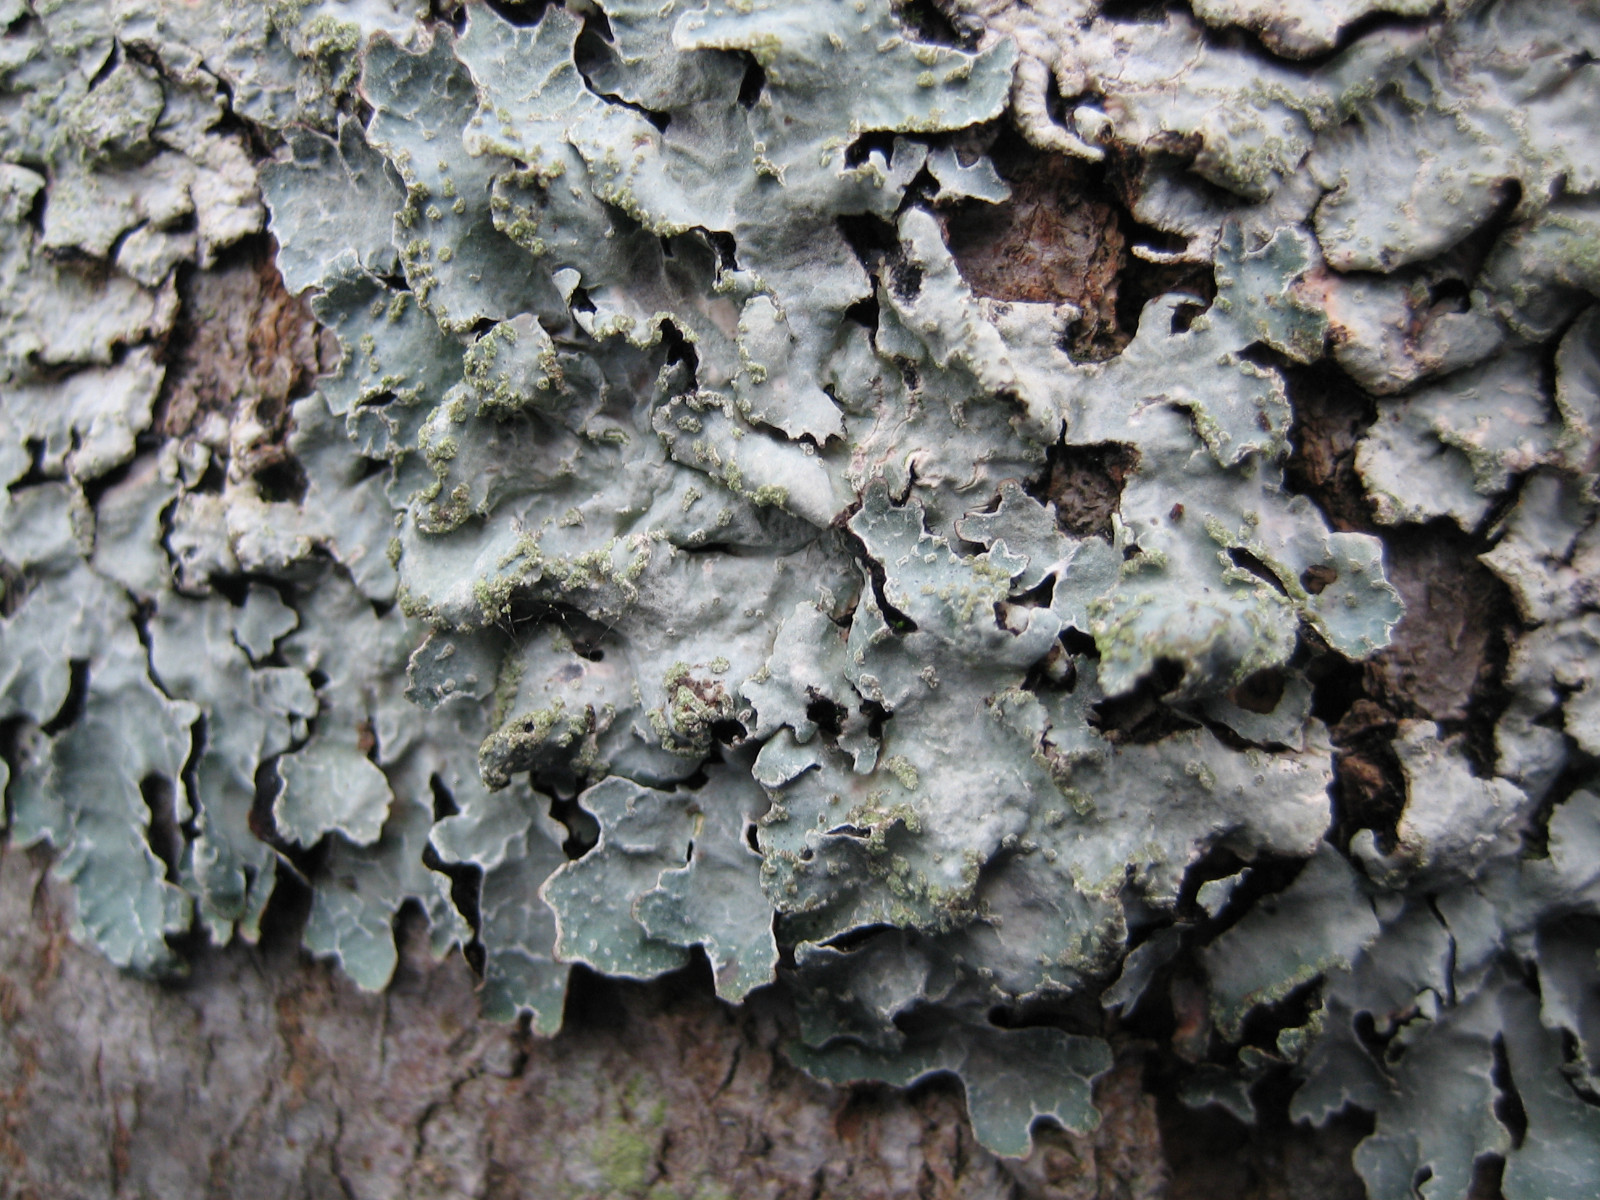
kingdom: Fungi
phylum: Ascomycota
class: Lecanoromycetes
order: Lecanorales
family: Parmeliaceae
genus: Parmelia
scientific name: Parmelia sulcata
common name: rynket skållav
